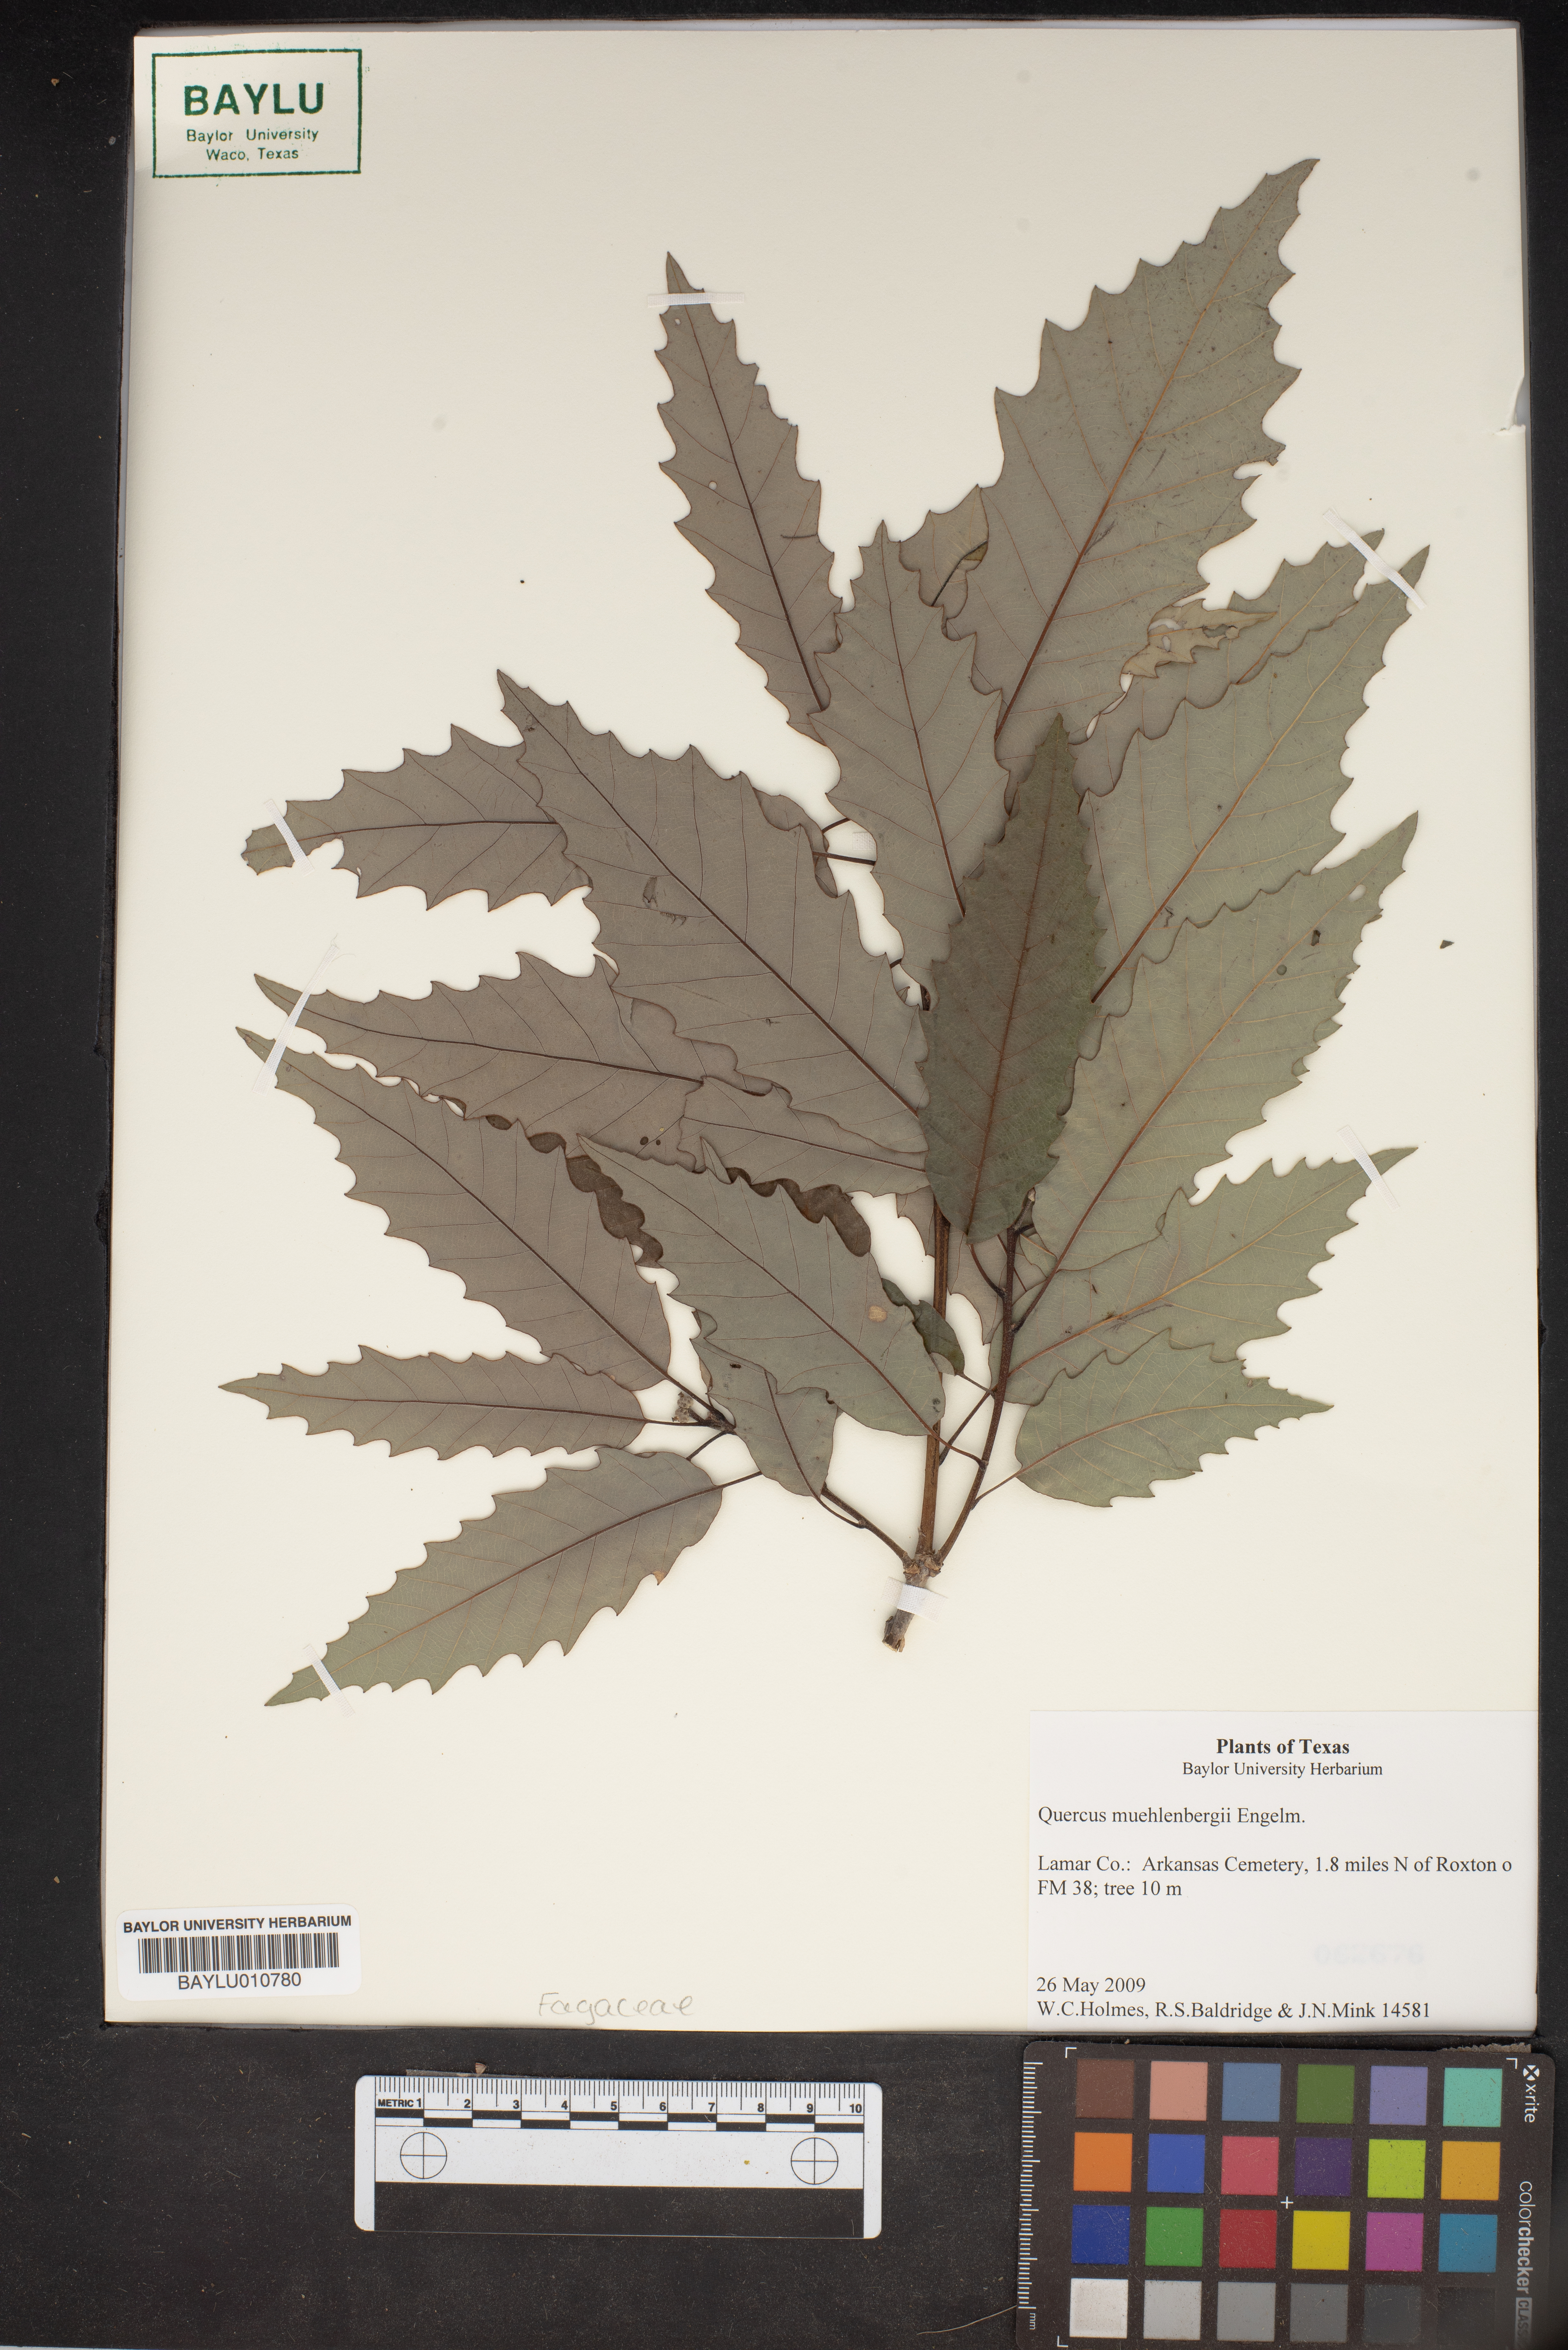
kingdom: Plantae
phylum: Tracheophyta
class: Magnoliopsida
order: Fagales
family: Fagaceae
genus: Quercus
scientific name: Quercus muehlenbergii
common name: Chinkapin oak
